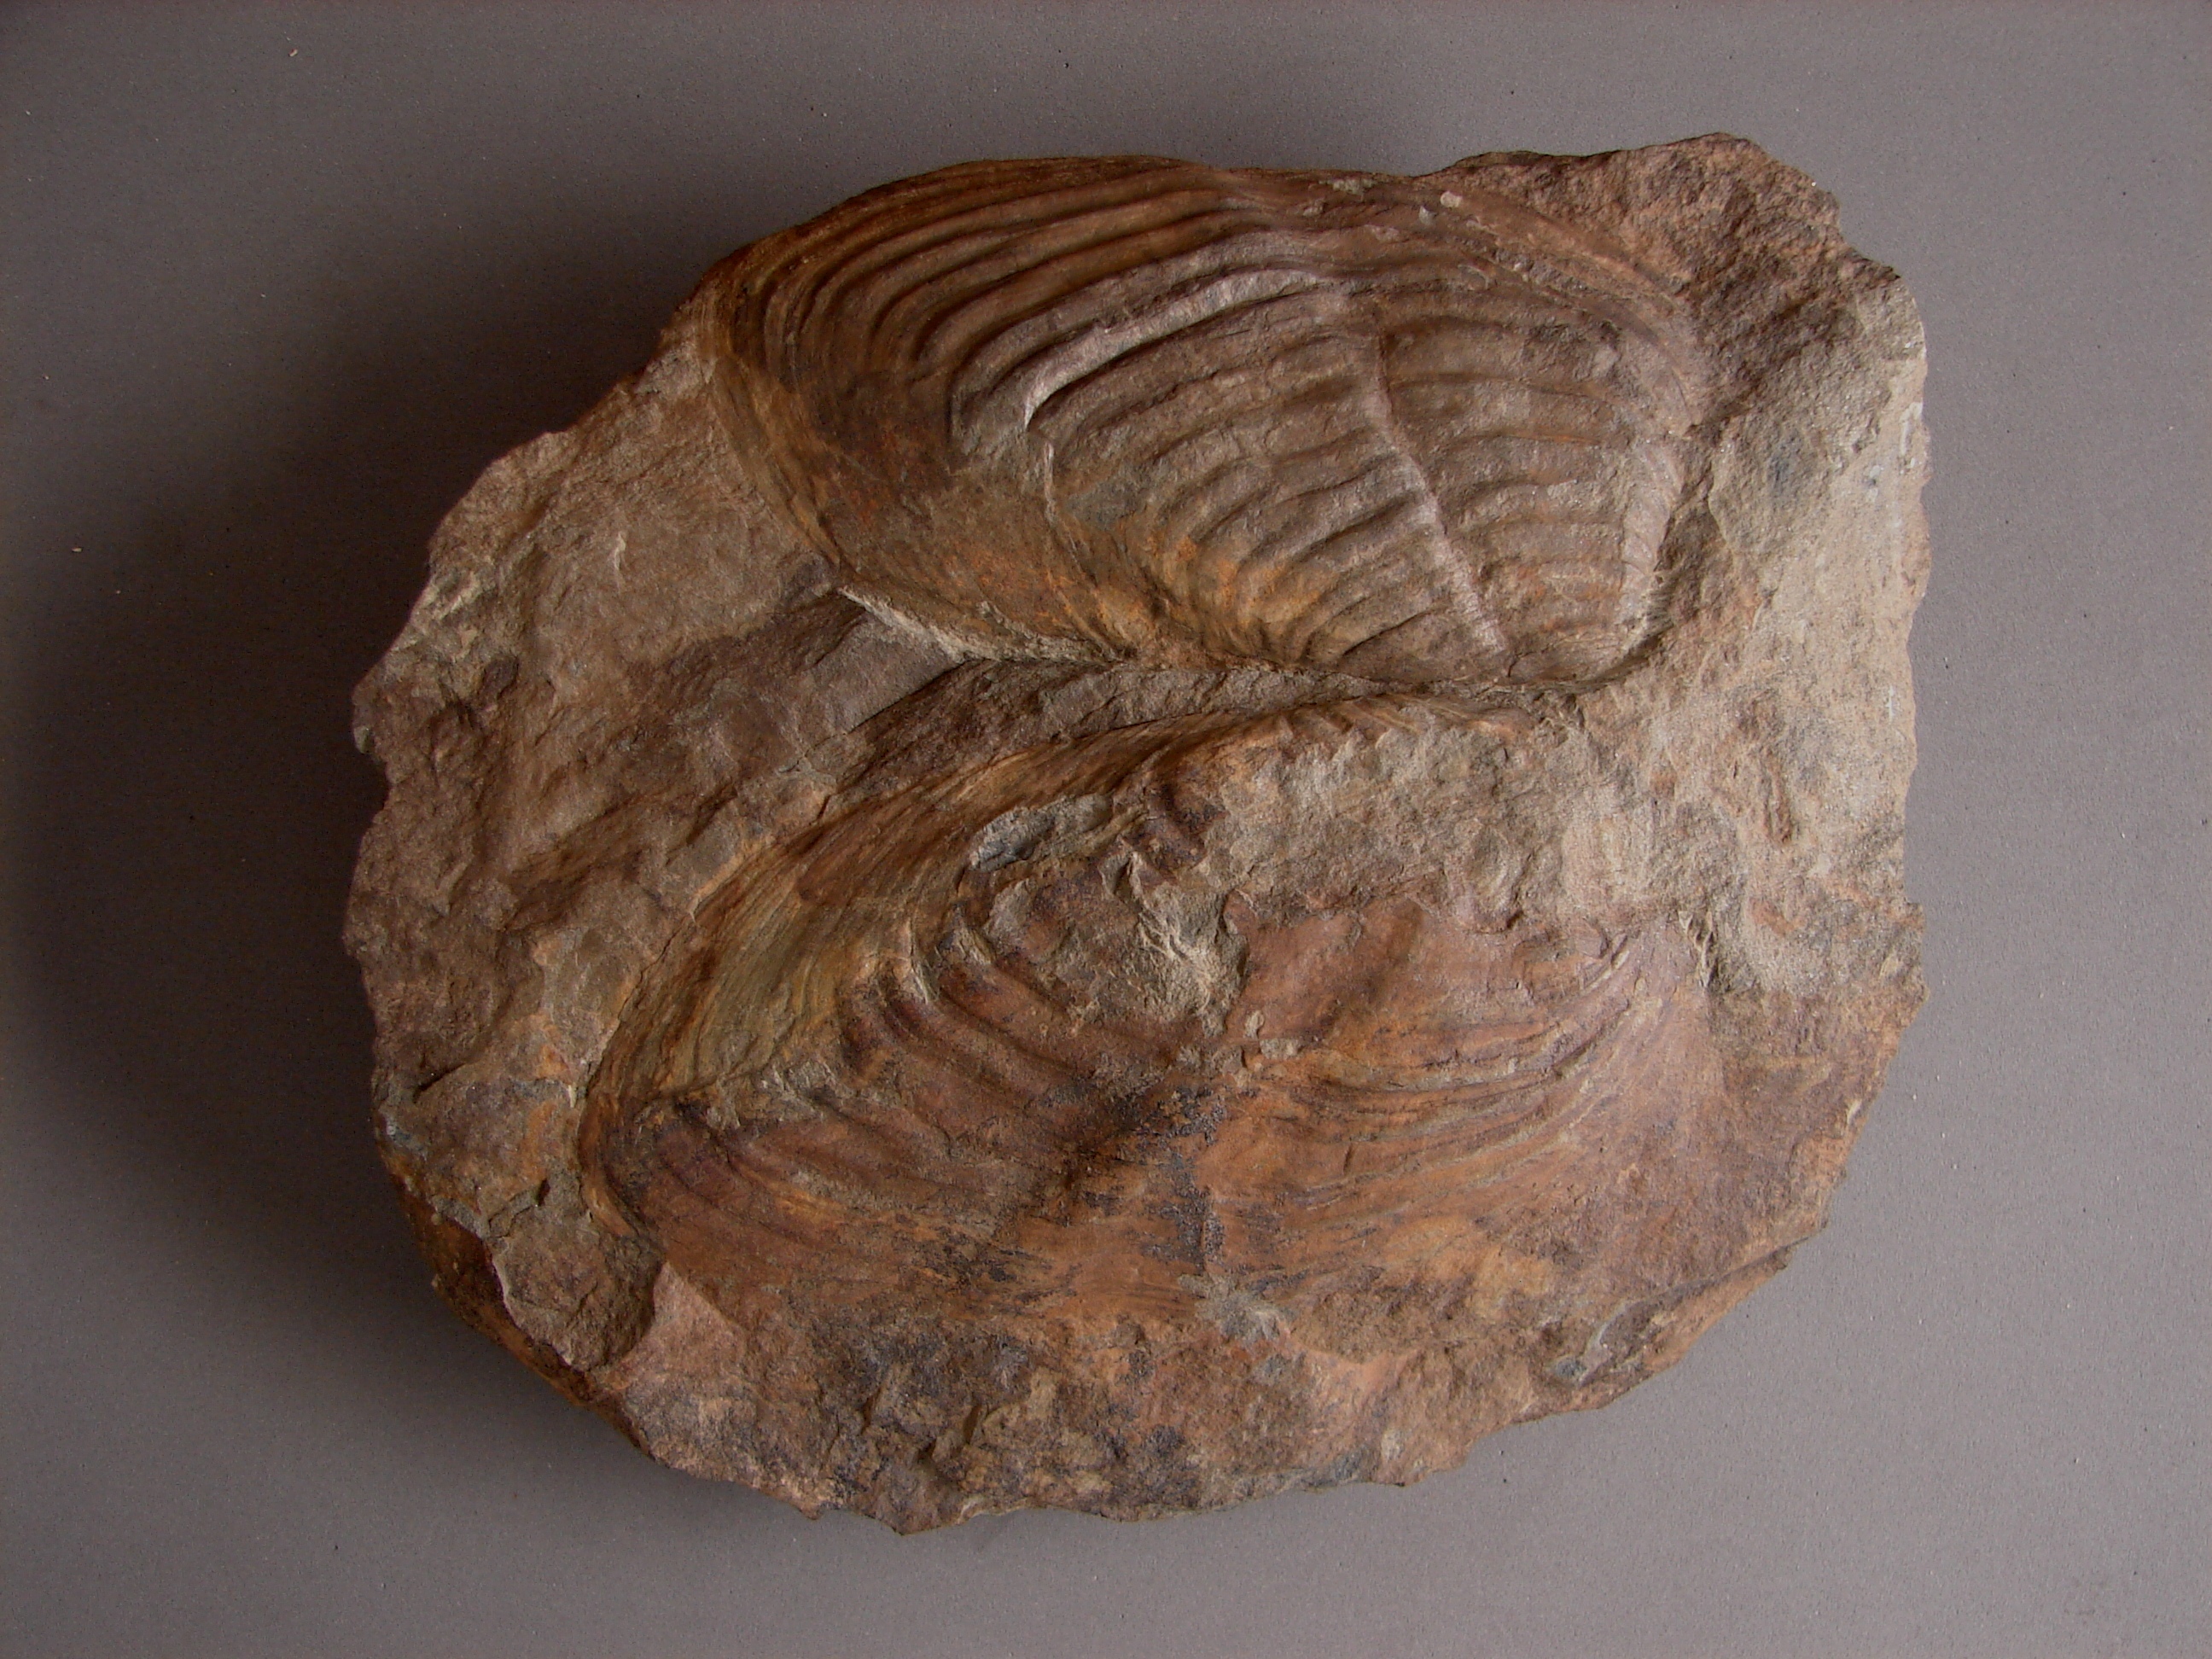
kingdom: Animalia
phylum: Mollusca
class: Bivalvia
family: Grammysiidae
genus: Grammysia
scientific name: Grammysia
